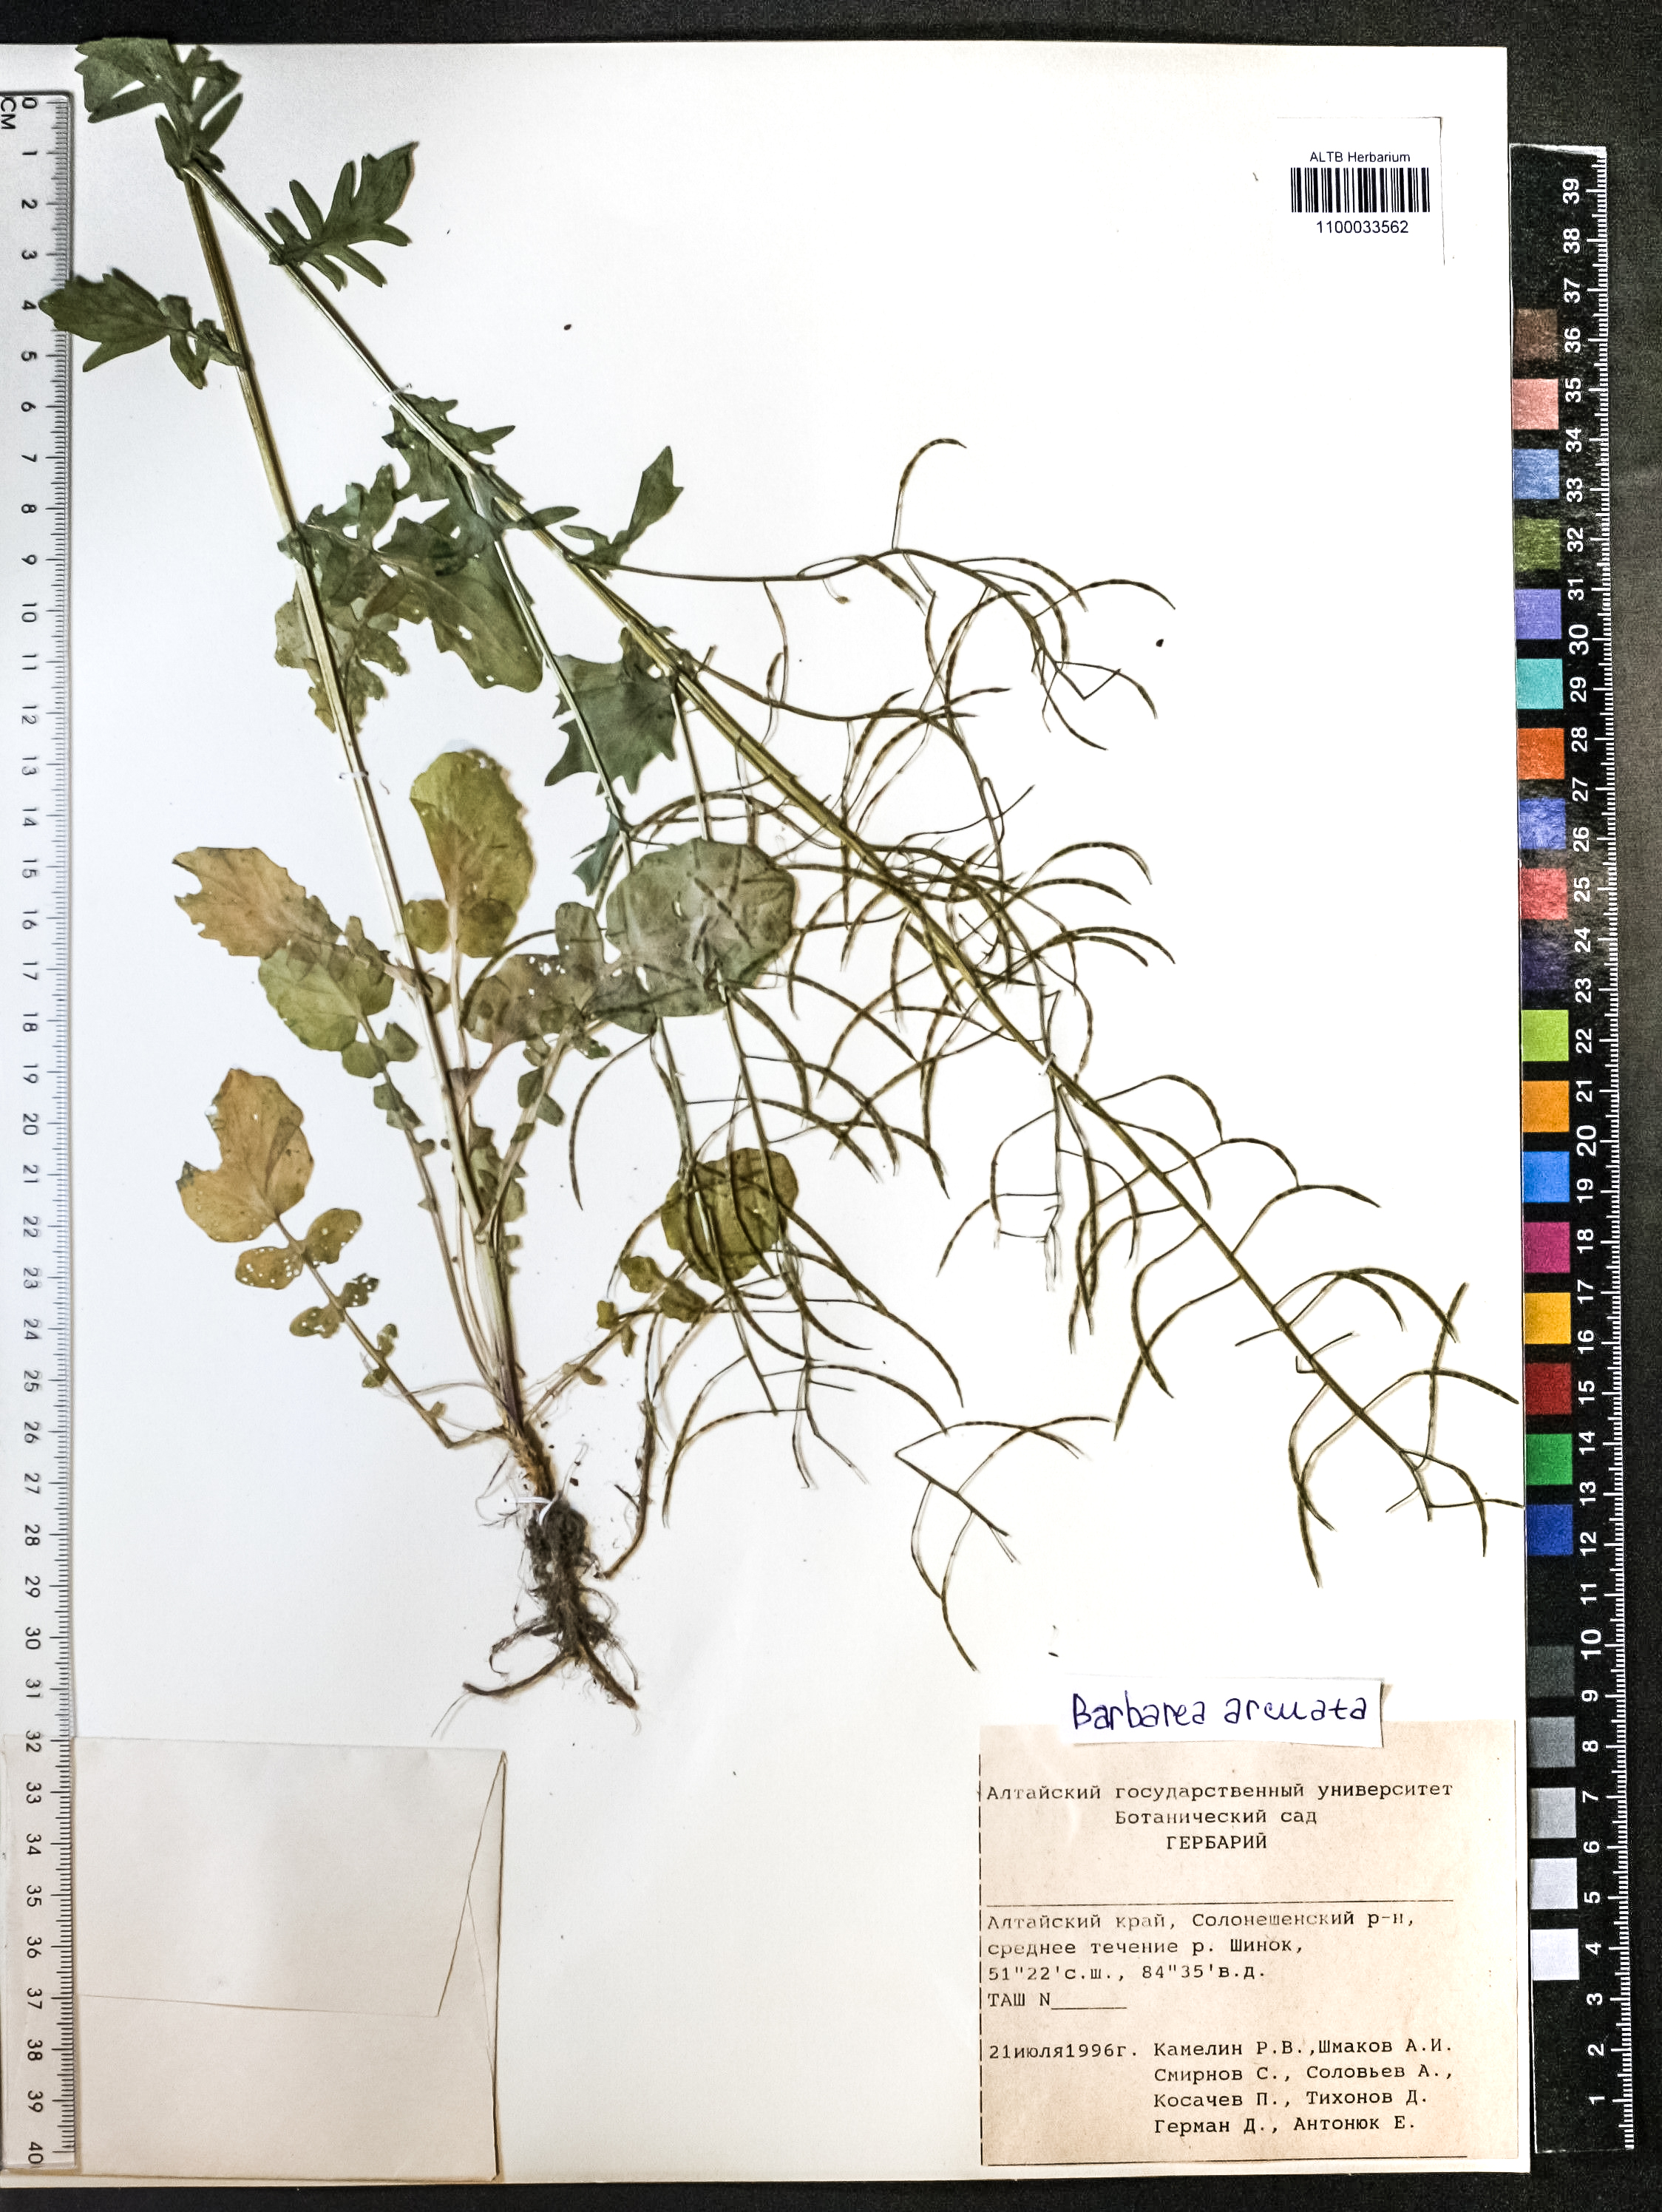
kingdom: Plantae
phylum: Tracheophyta
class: Magnoliopsida
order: Brassicales
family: Brassicaceae
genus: Barbarea
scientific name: Barbarea vulgaris
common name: Cressy-greens
